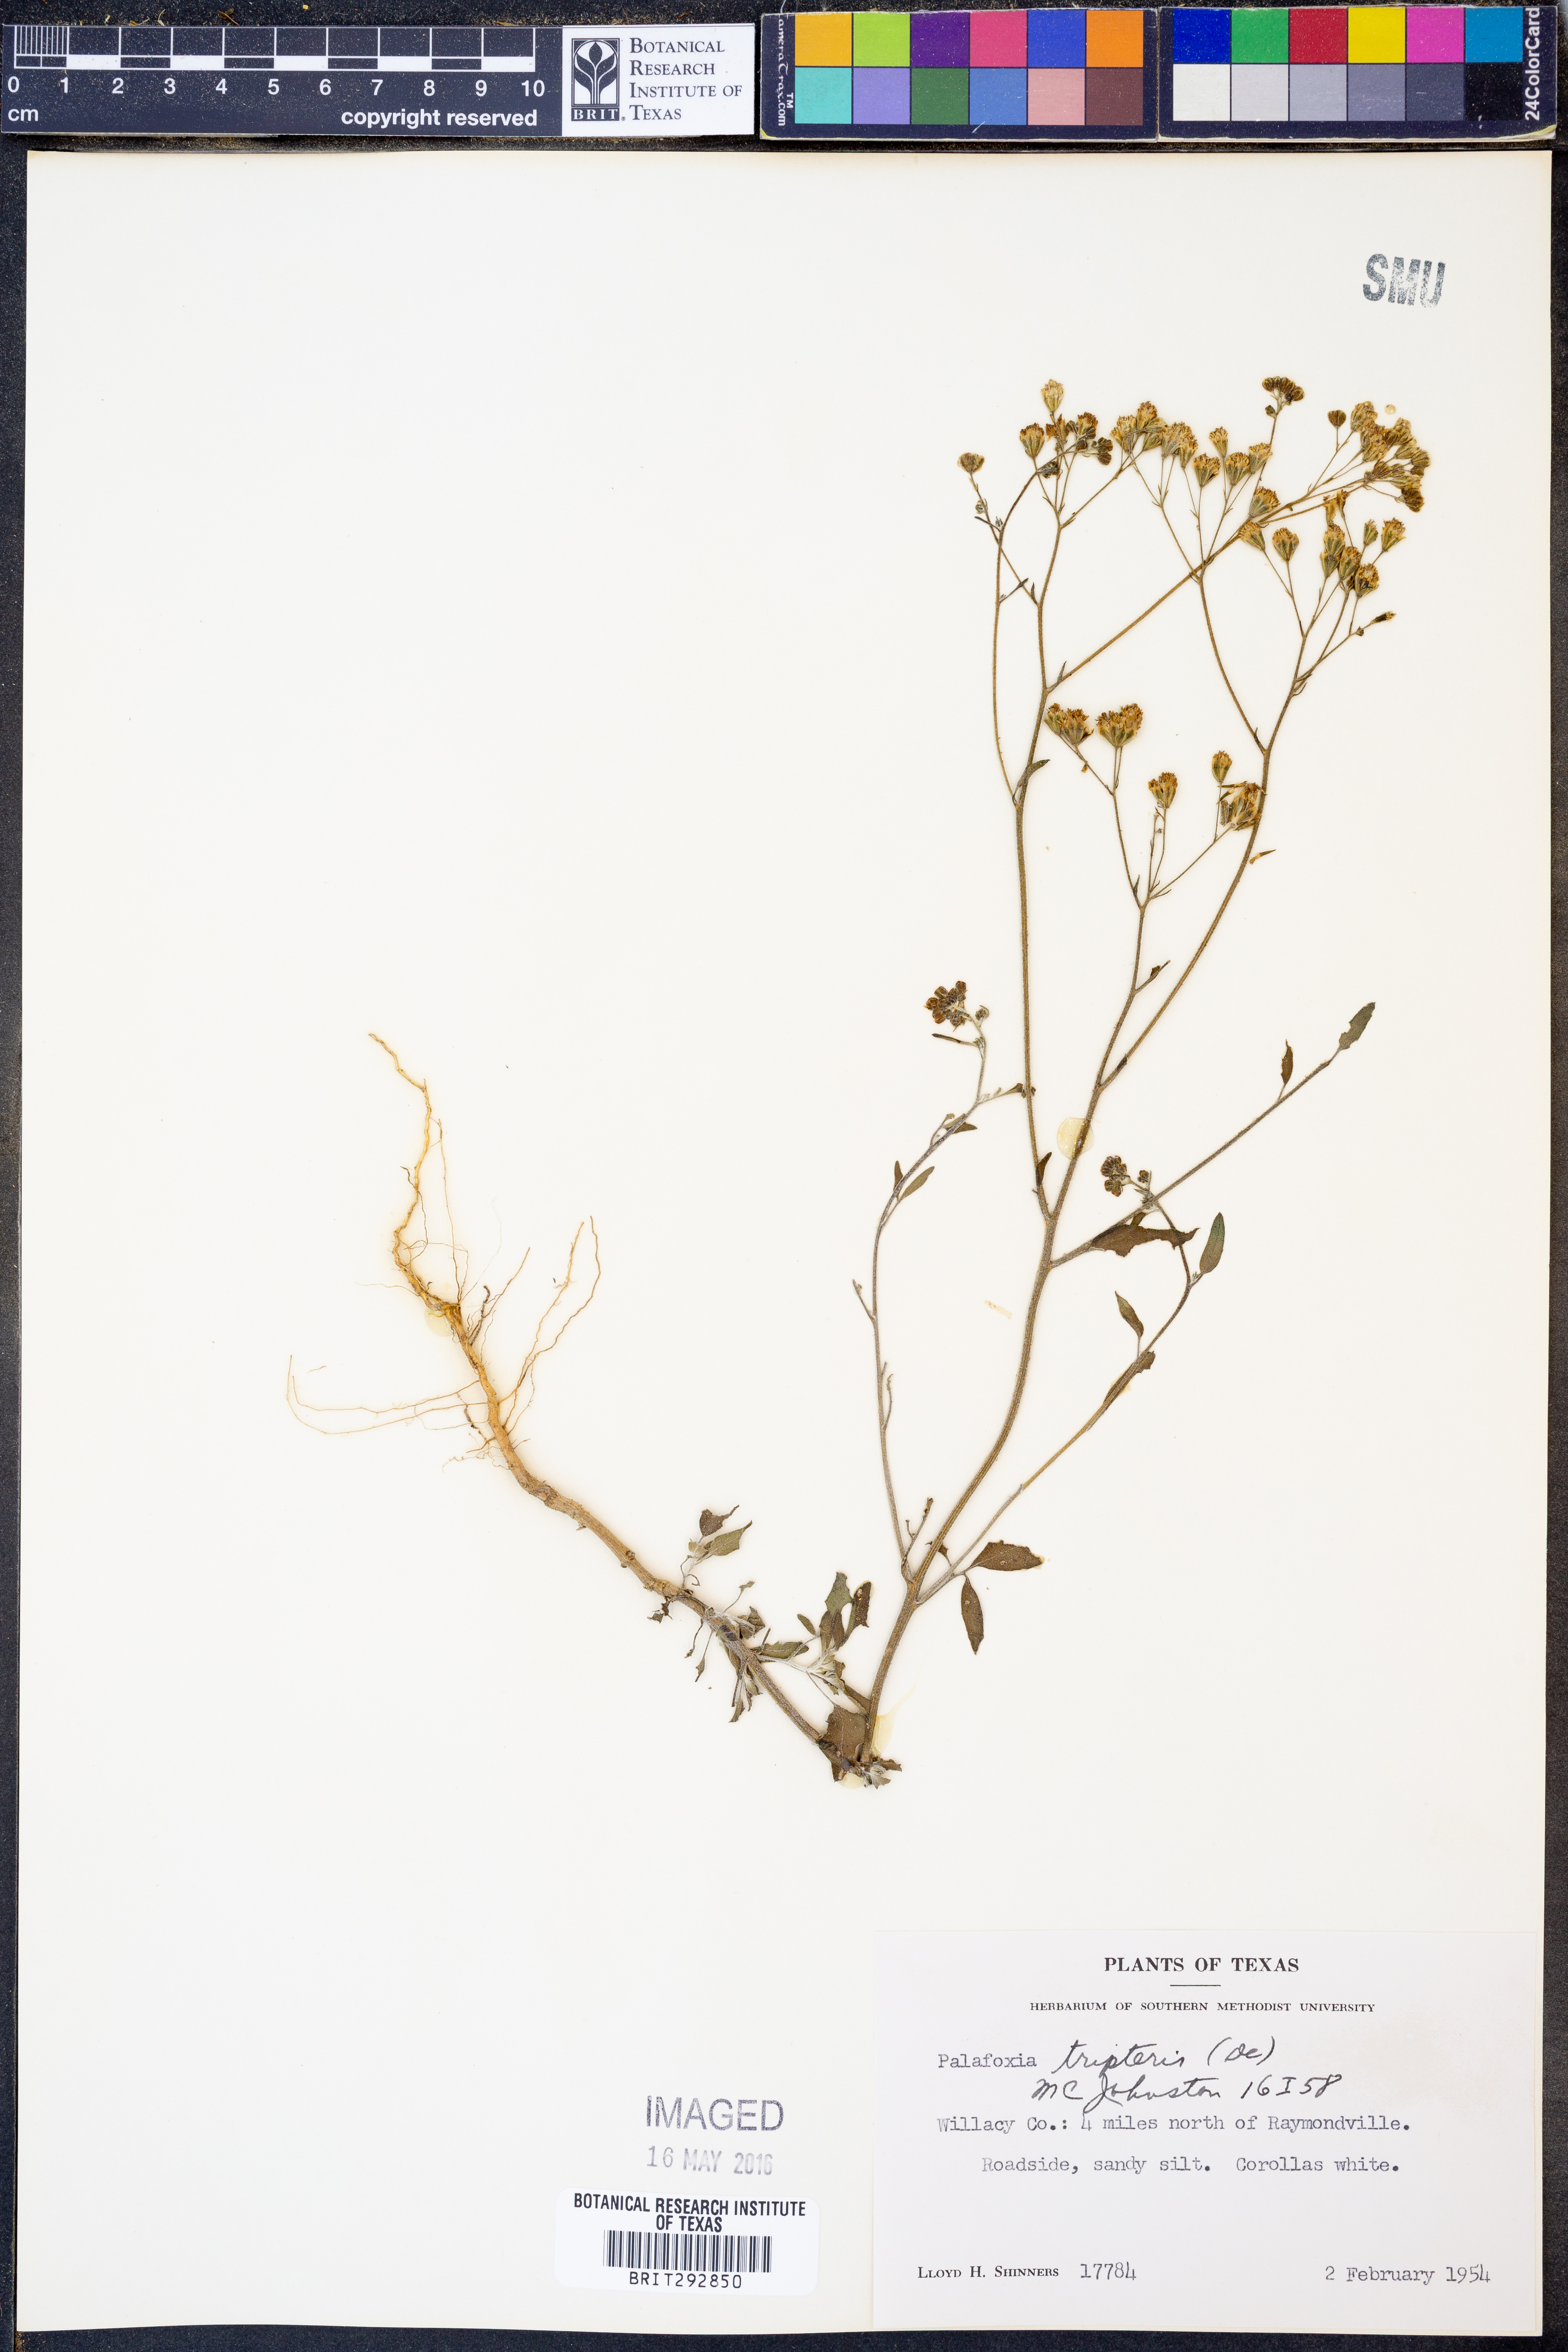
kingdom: Plantae
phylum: Tracheophyta
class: Magnoliopsida
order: Asterales
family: Asteraceae
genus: Florestina
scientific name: Florestina tripteris
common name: Sticky florestina
